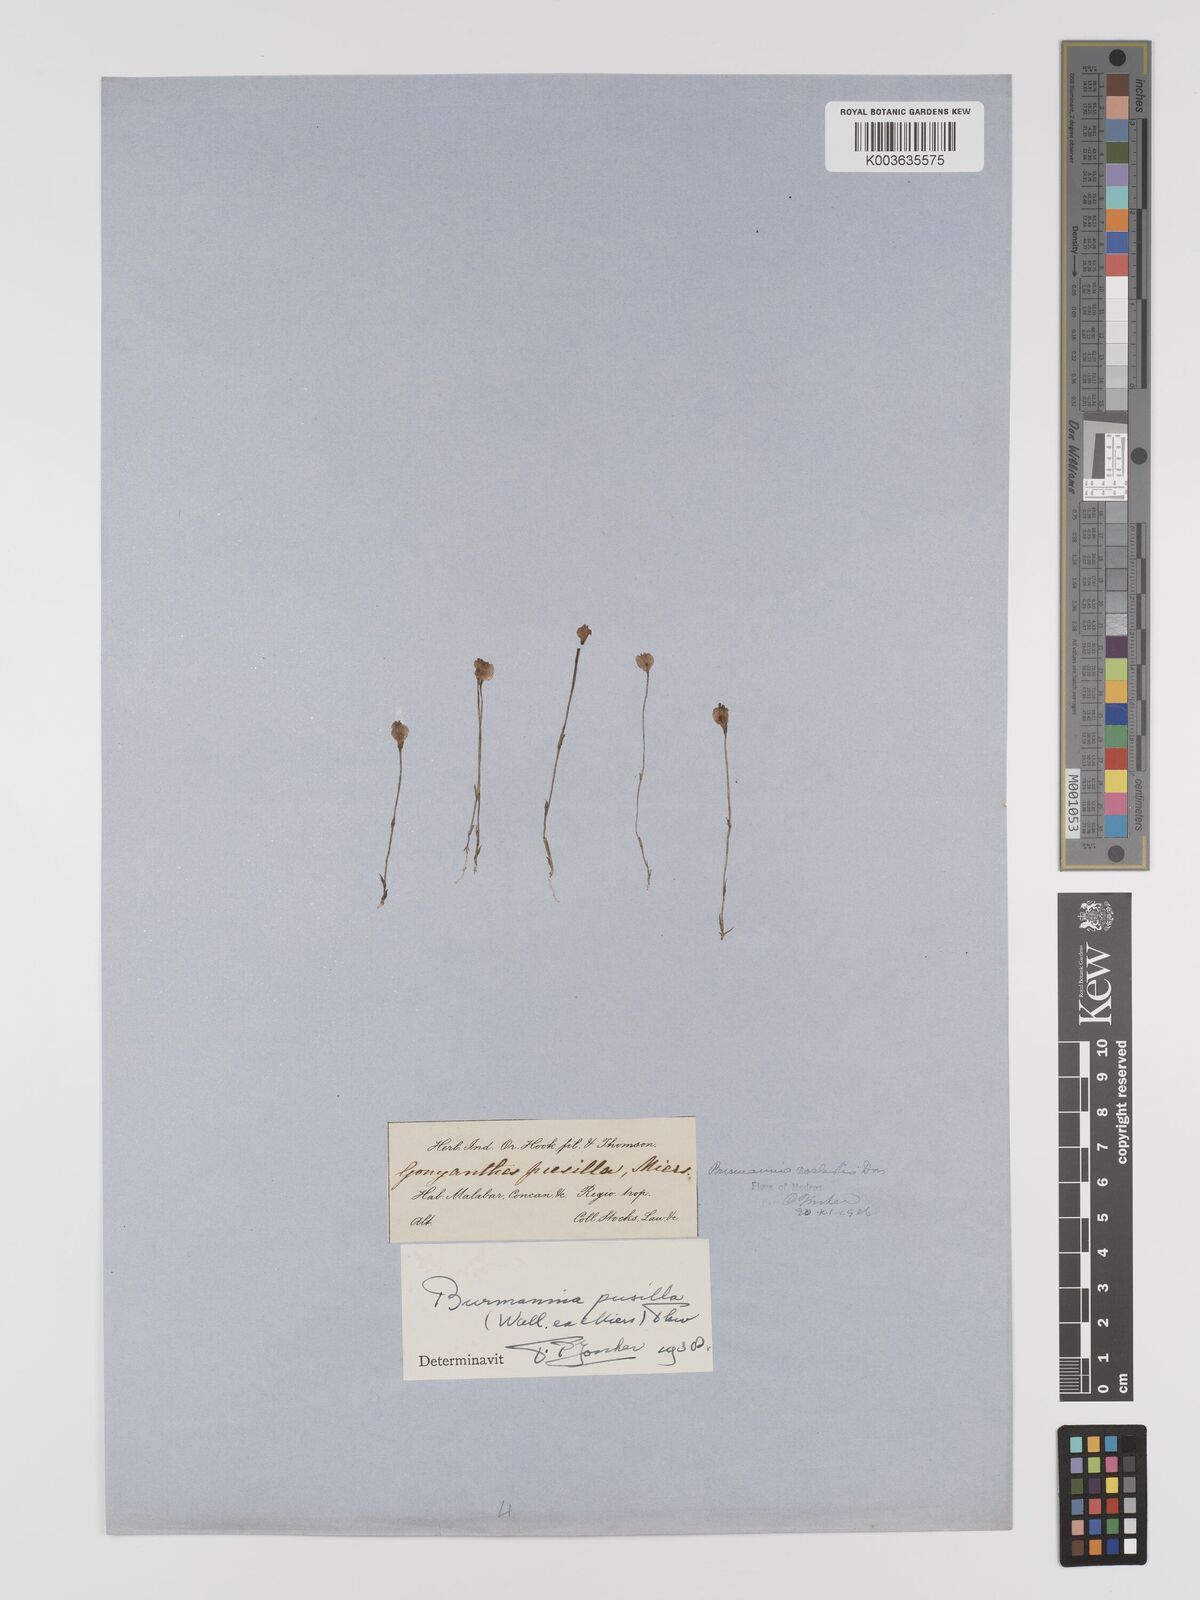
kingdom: Plantae
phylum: Tracheophyta
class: Liliopsida
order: Dioscoreales
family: Burmanniaceae
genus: Burmannia
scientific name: Burmannia pusilla
